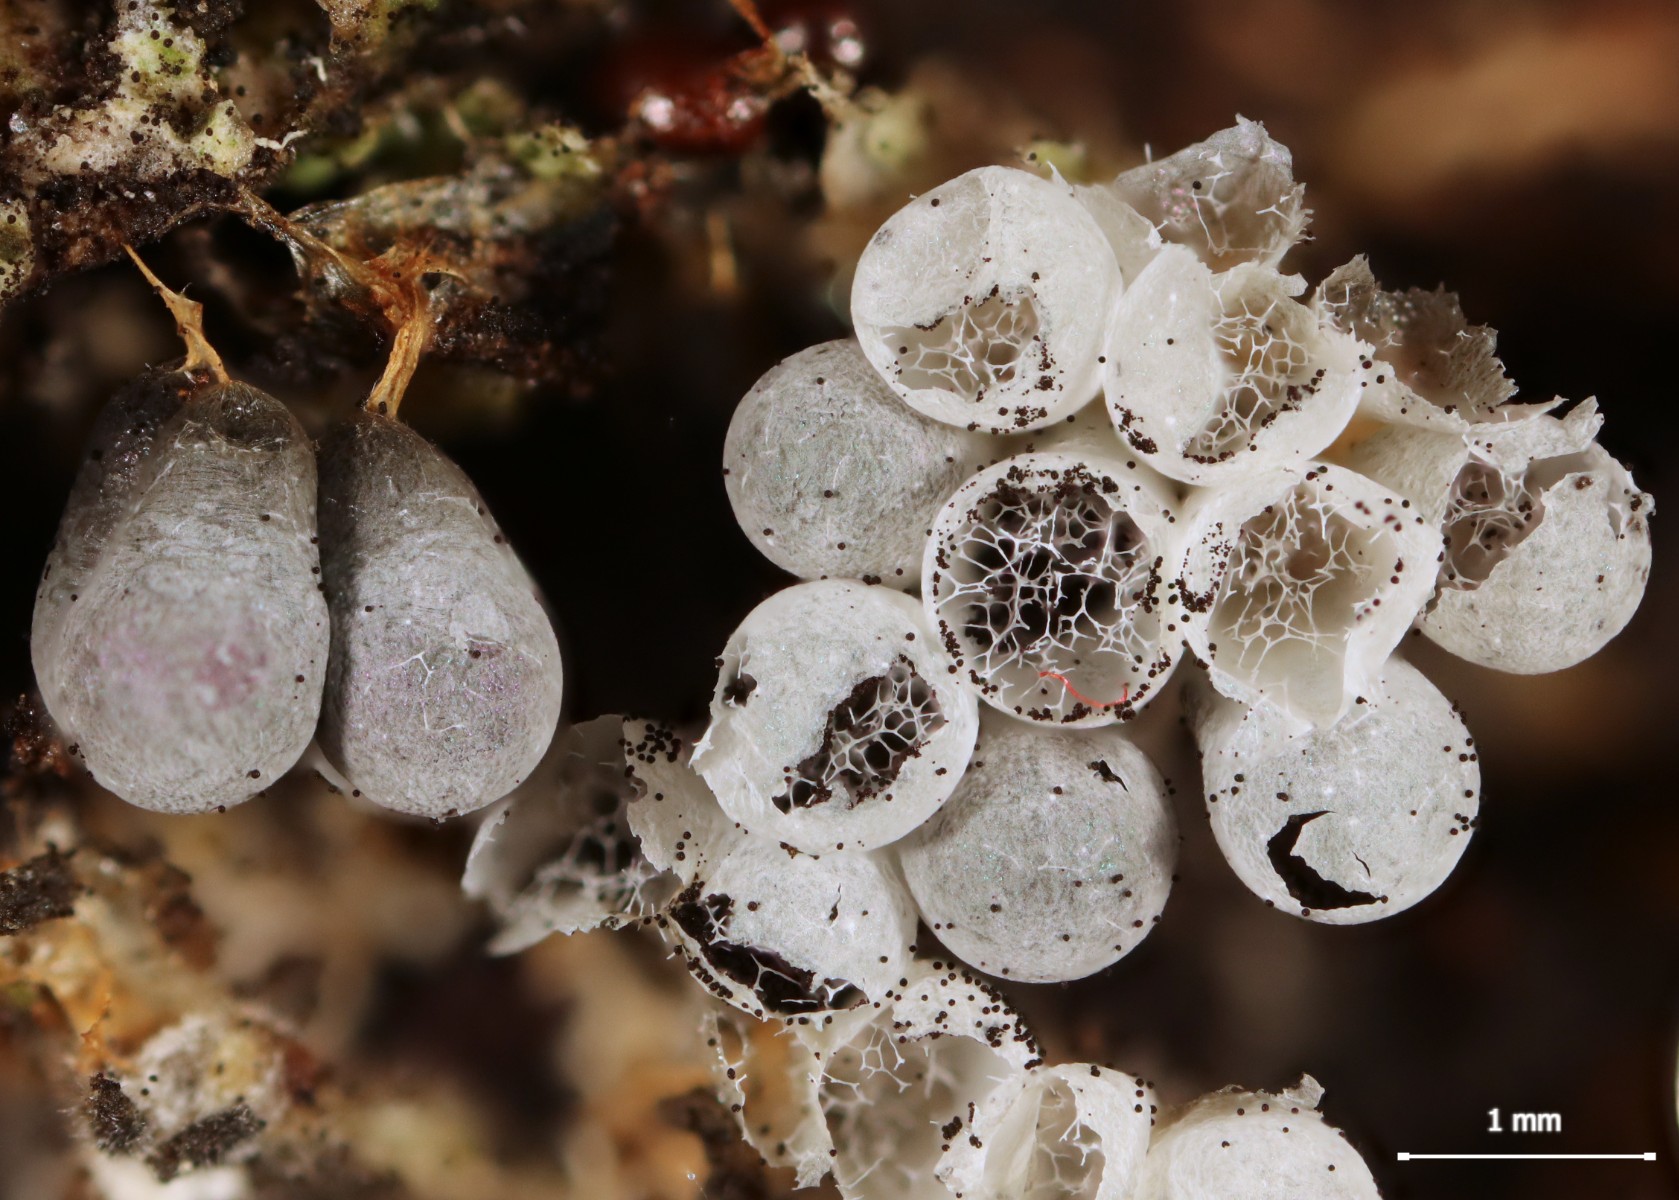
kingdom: Protozoa
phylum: Mycetozoa
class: Myxomycetes
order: Physarales
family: Physaraceae
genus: Badhamia
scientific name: Badhamia utricularis
